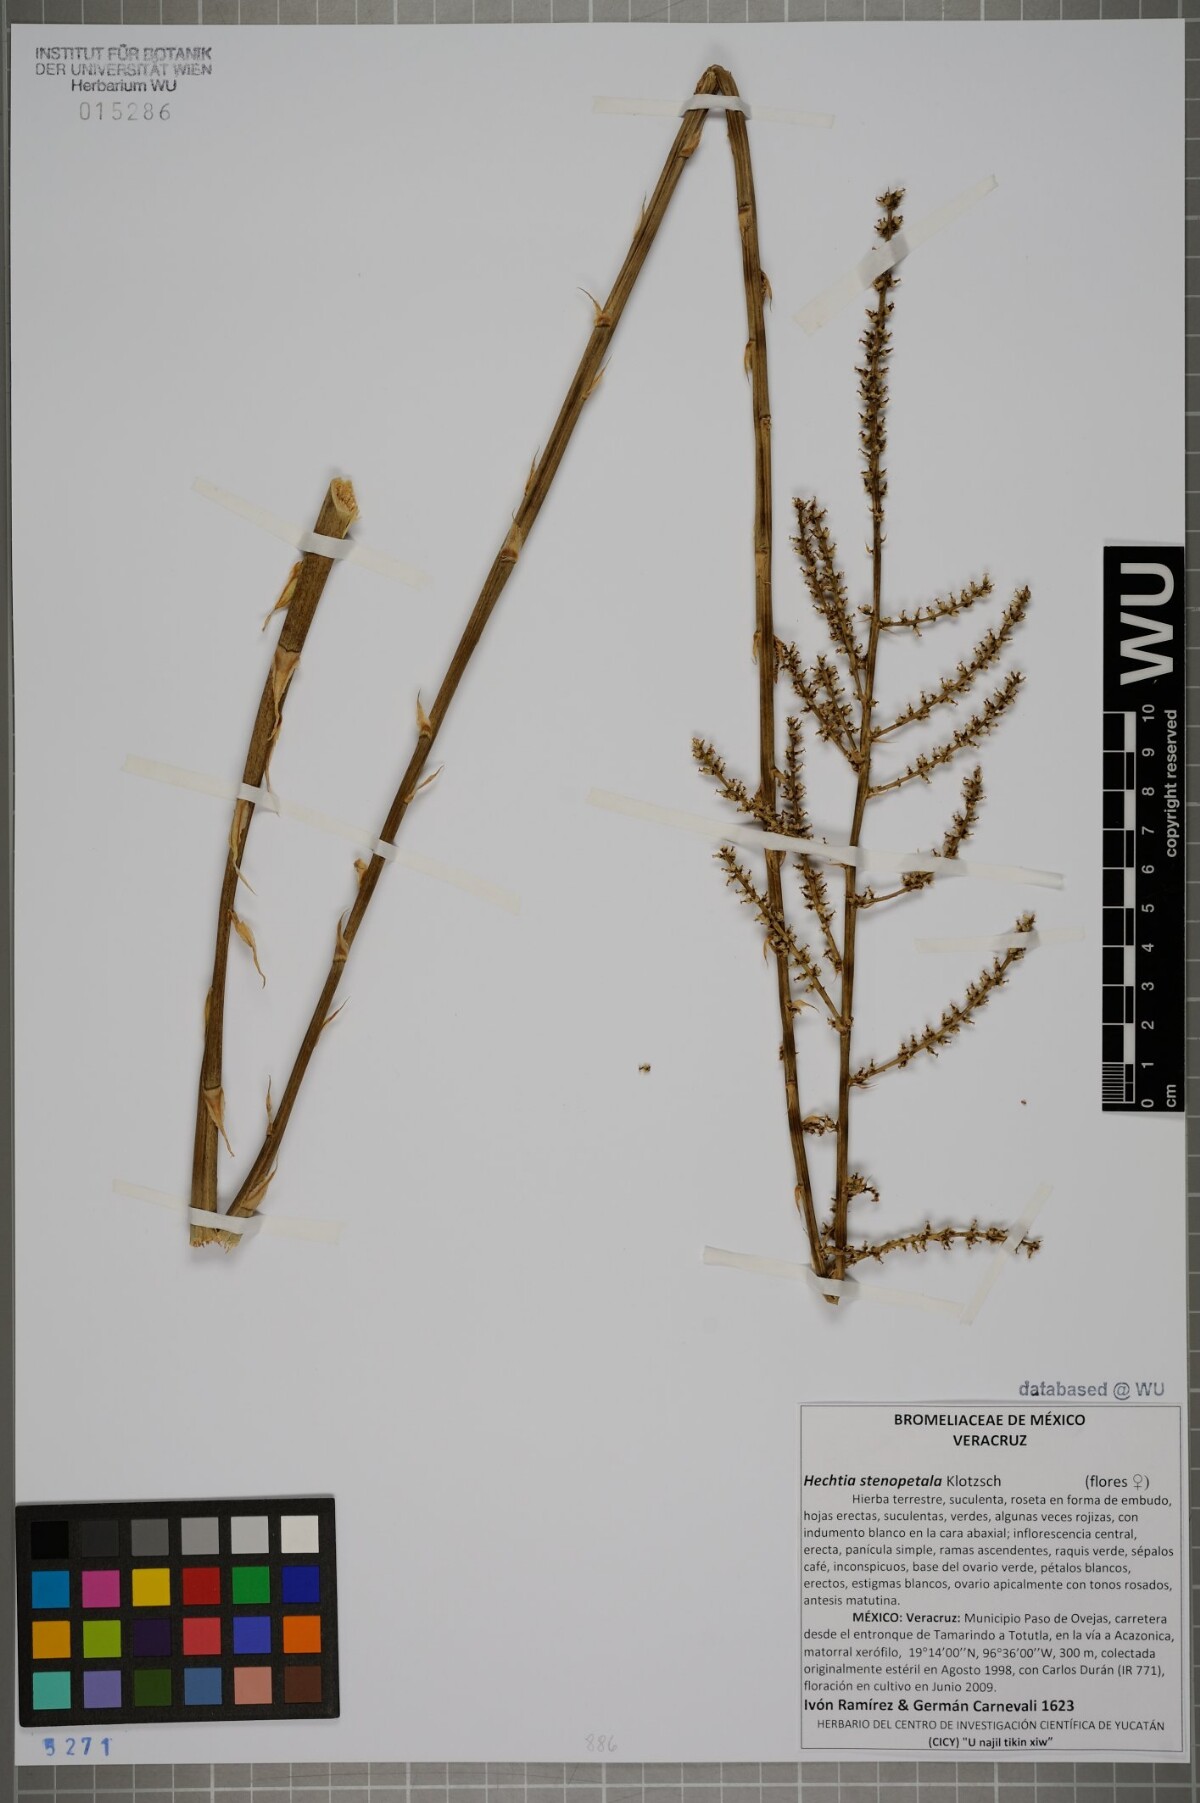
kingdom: Plantae
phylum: Tracheophyta
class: Liliopsida
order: Poales
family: Bromeliaceae
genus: Hechtia
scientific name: Hechtia stenopetala
